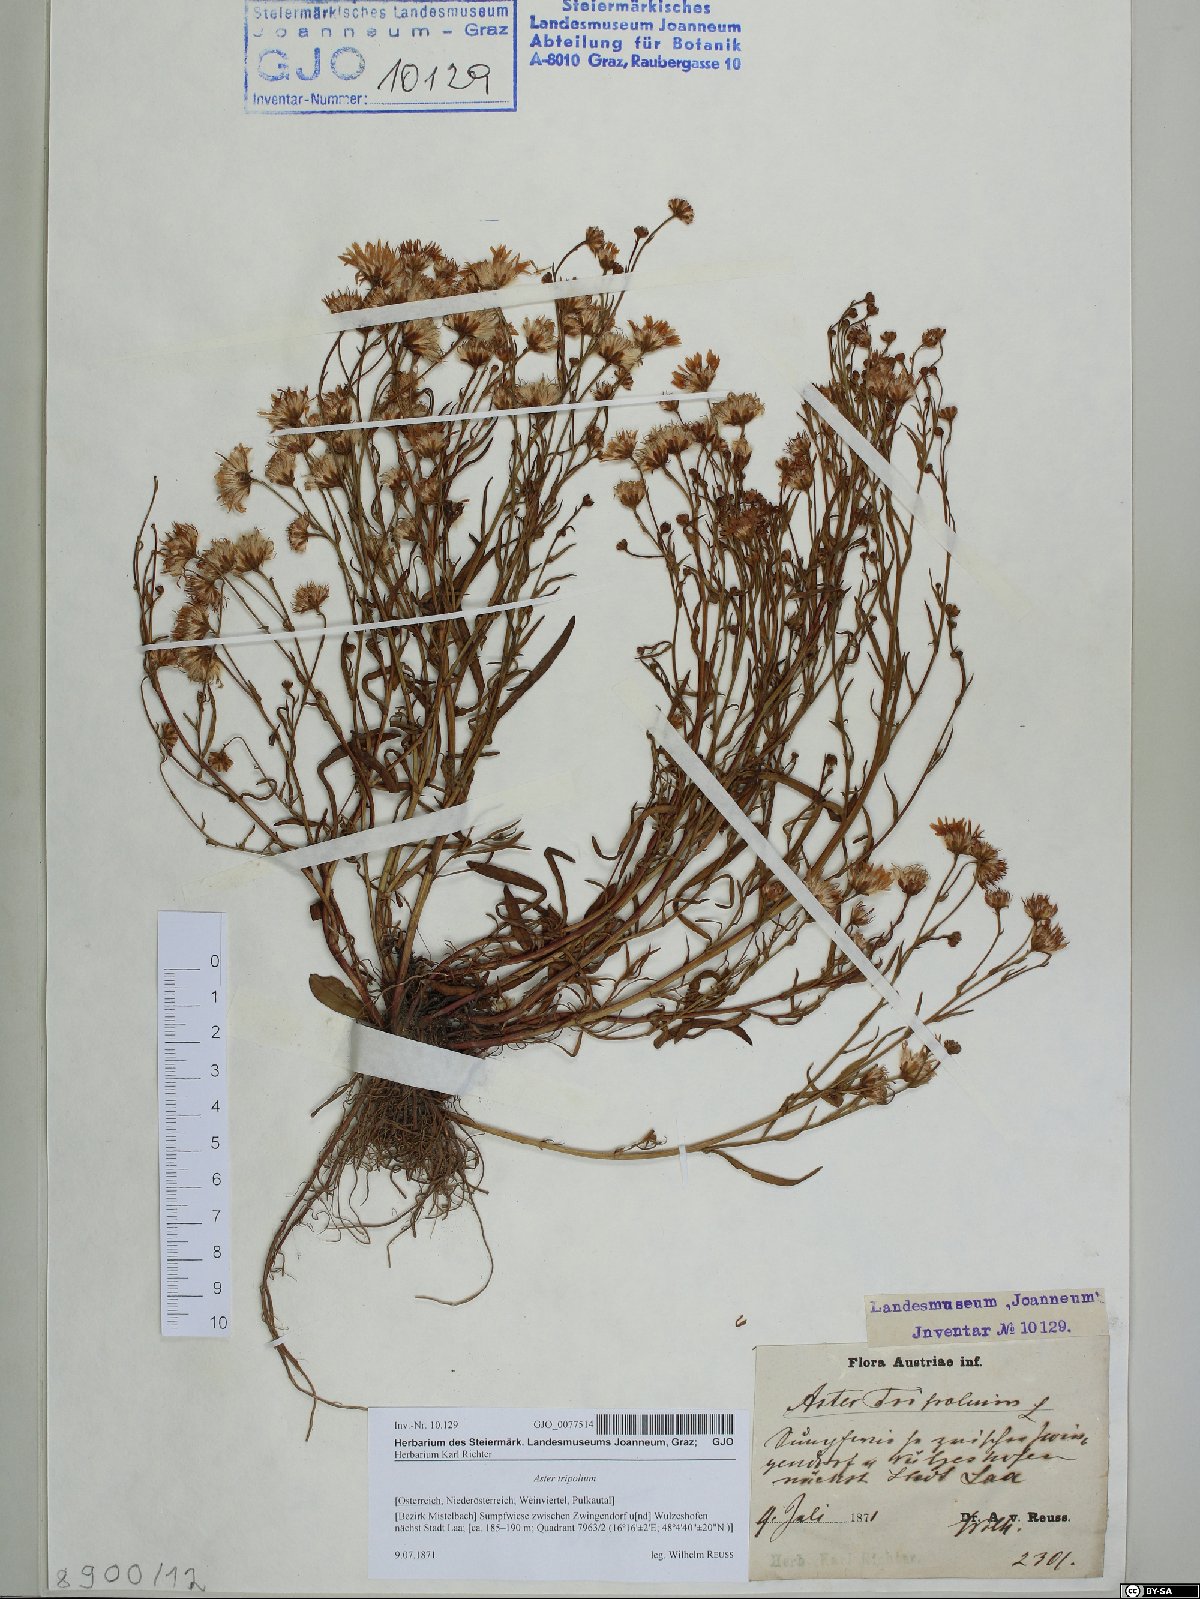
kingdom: Plantae
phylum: Tracheophyta
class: Magnoliopsida
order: Asterales
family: Asteraceae
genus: Tripolium
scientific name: Tripolium pannonicum
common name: Sea aster
